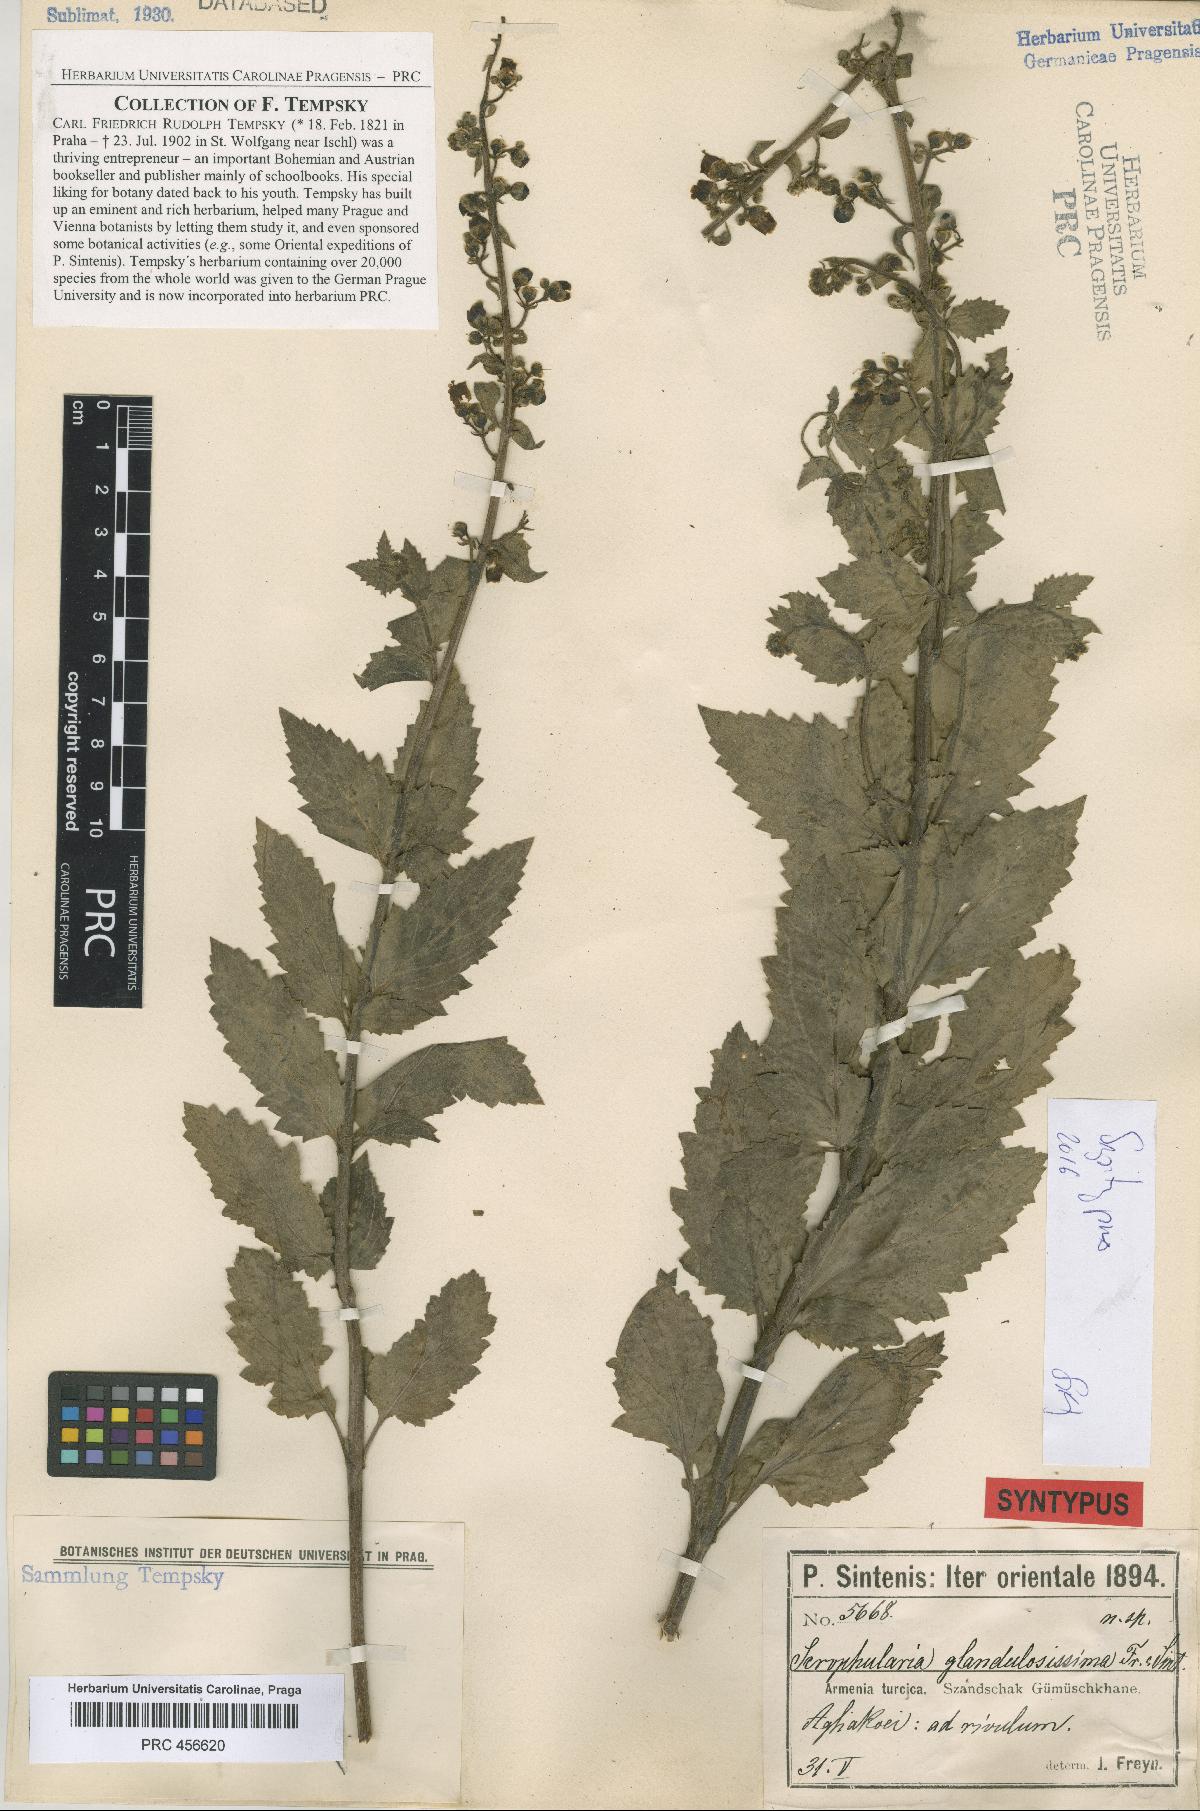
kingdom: Plantae
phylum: Tracheophyta
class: Magnoliopsida
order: Lamiales
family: Scrophulariaceae
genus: Scrophularia
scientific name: Scrophularia catariifolia
